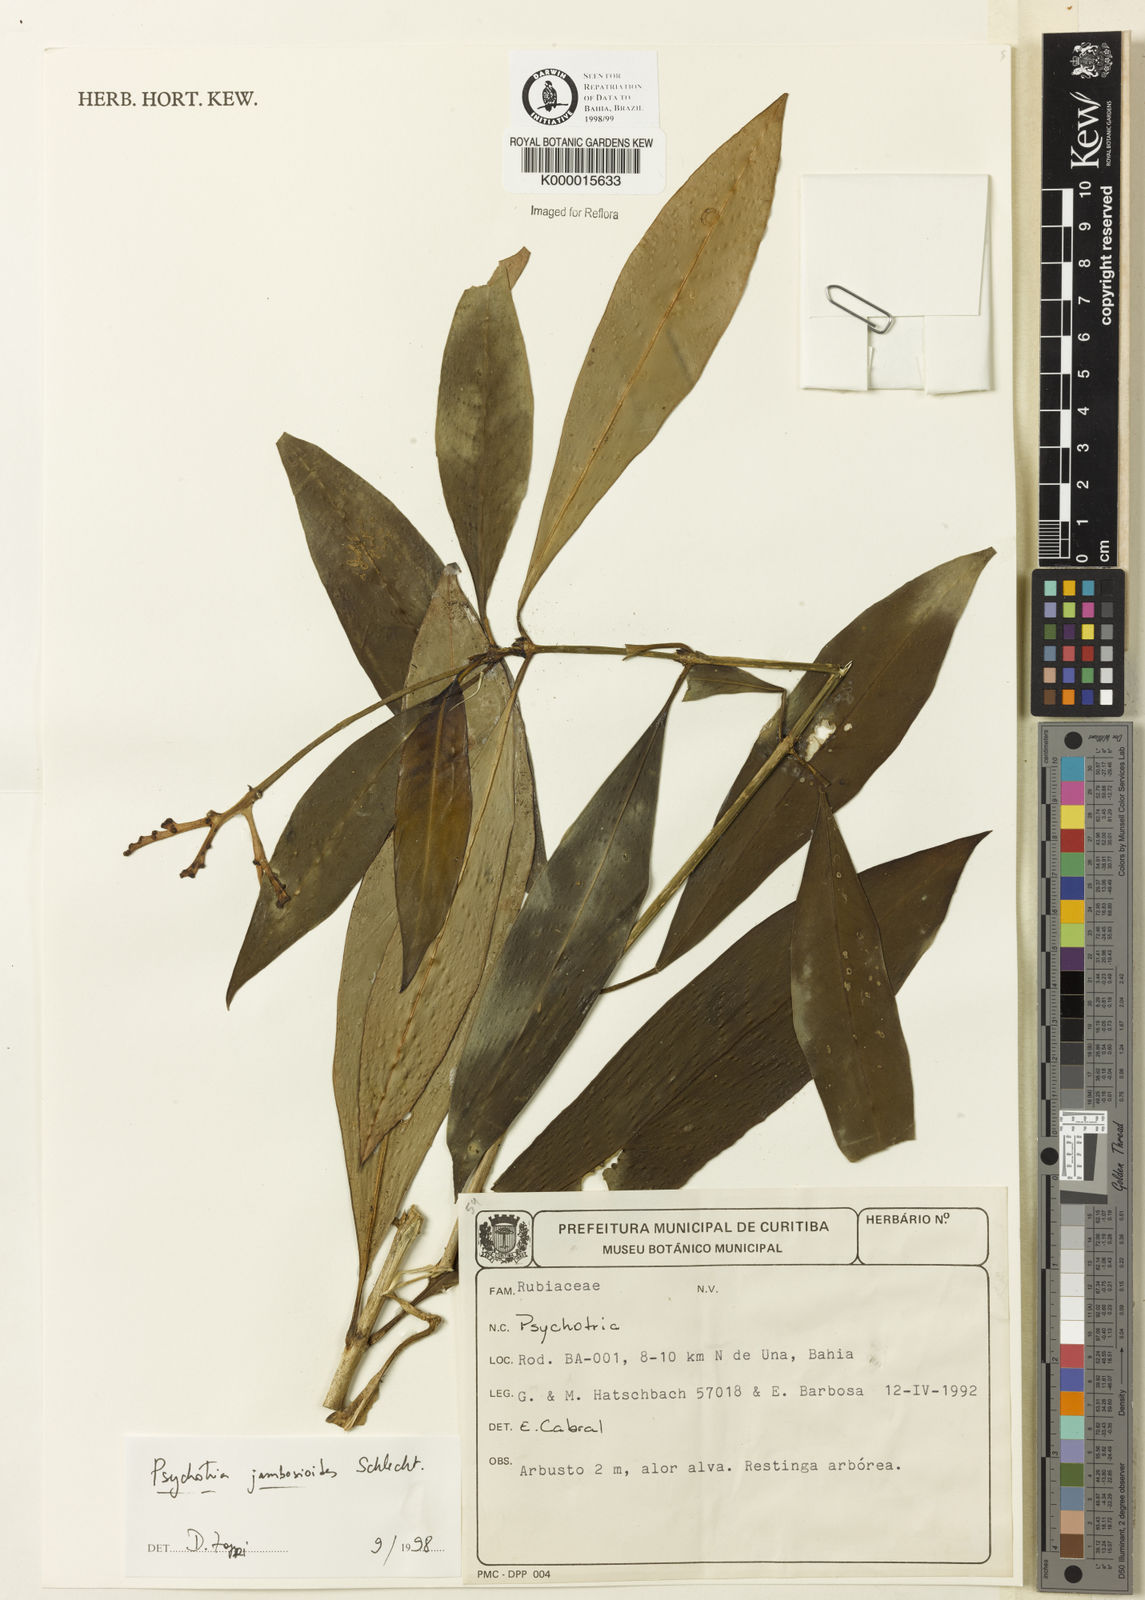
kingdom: Plantae
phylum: Tracheophyta
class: Magnoliopsida
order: Gentianales
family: Rubiaceae
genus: Palicourea
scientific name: Palicourea jambosioides
